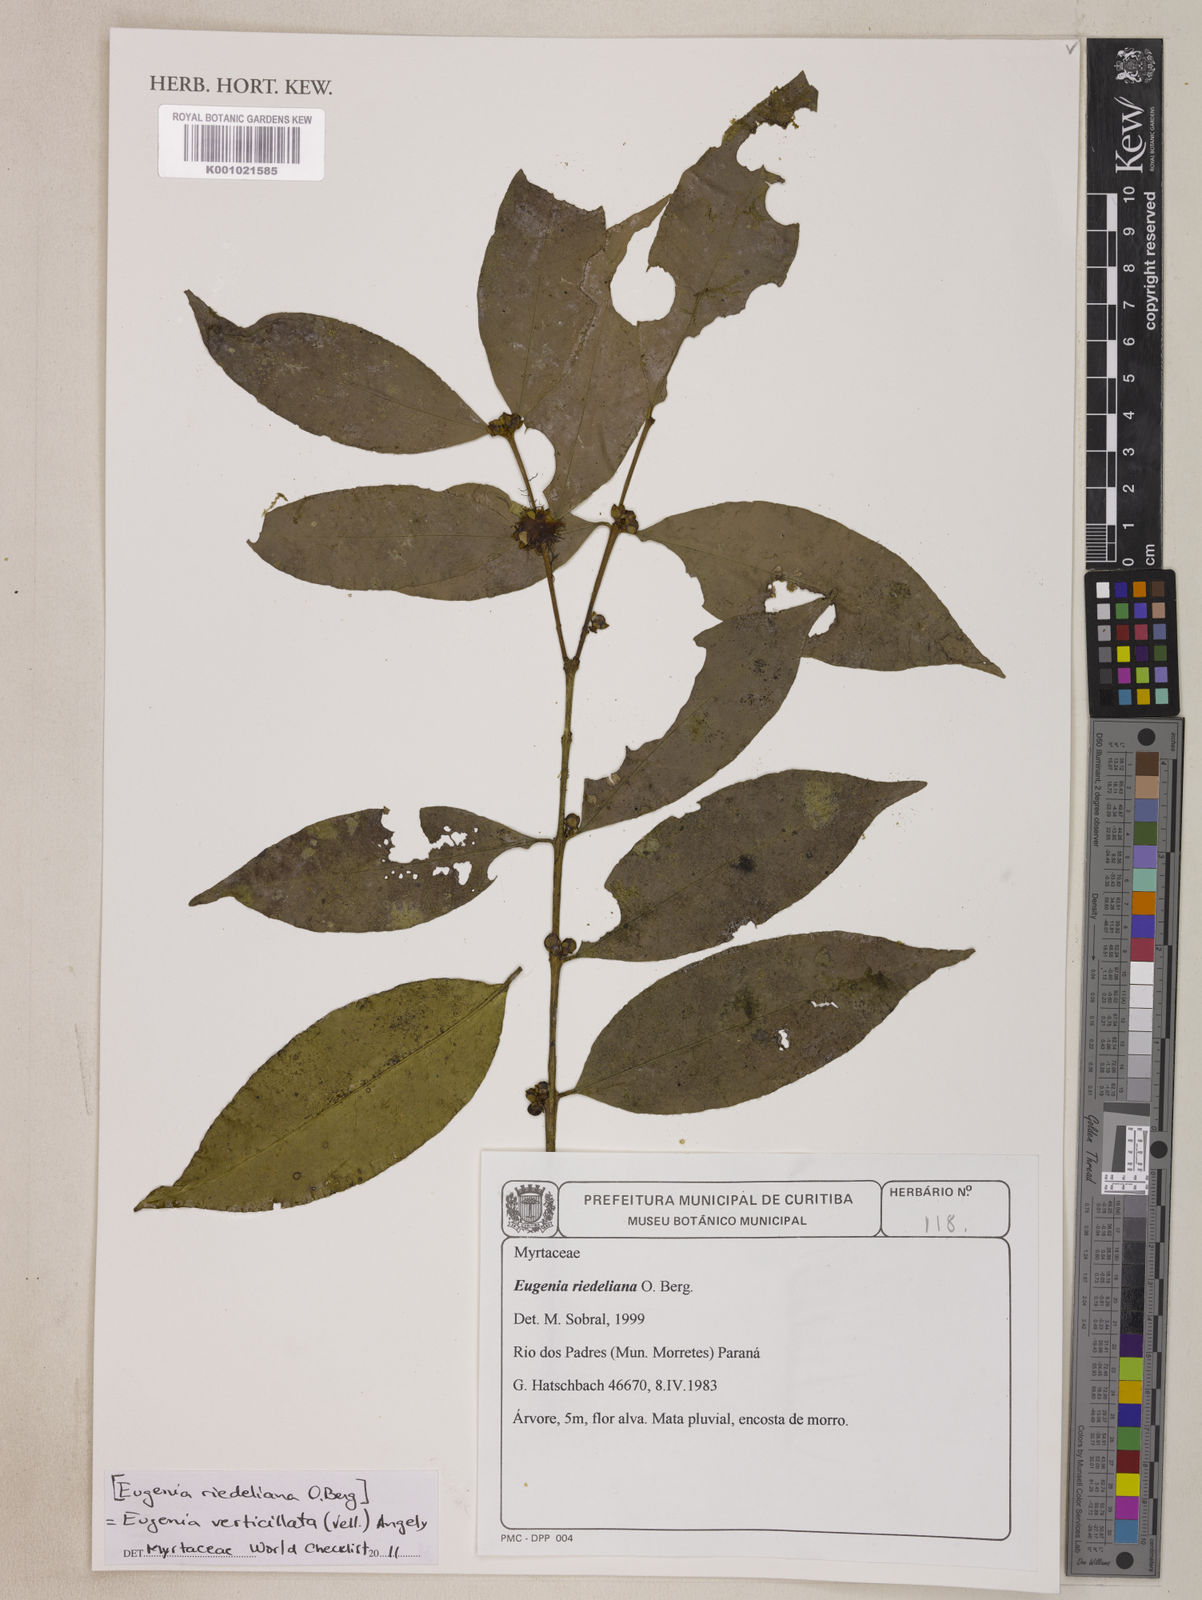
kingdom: Plantae
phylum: Tracheophyta
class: Magnoliopsida
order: Myrtales
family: Myrtaceae
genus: Eugenia
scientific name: Eugenia verticillata
